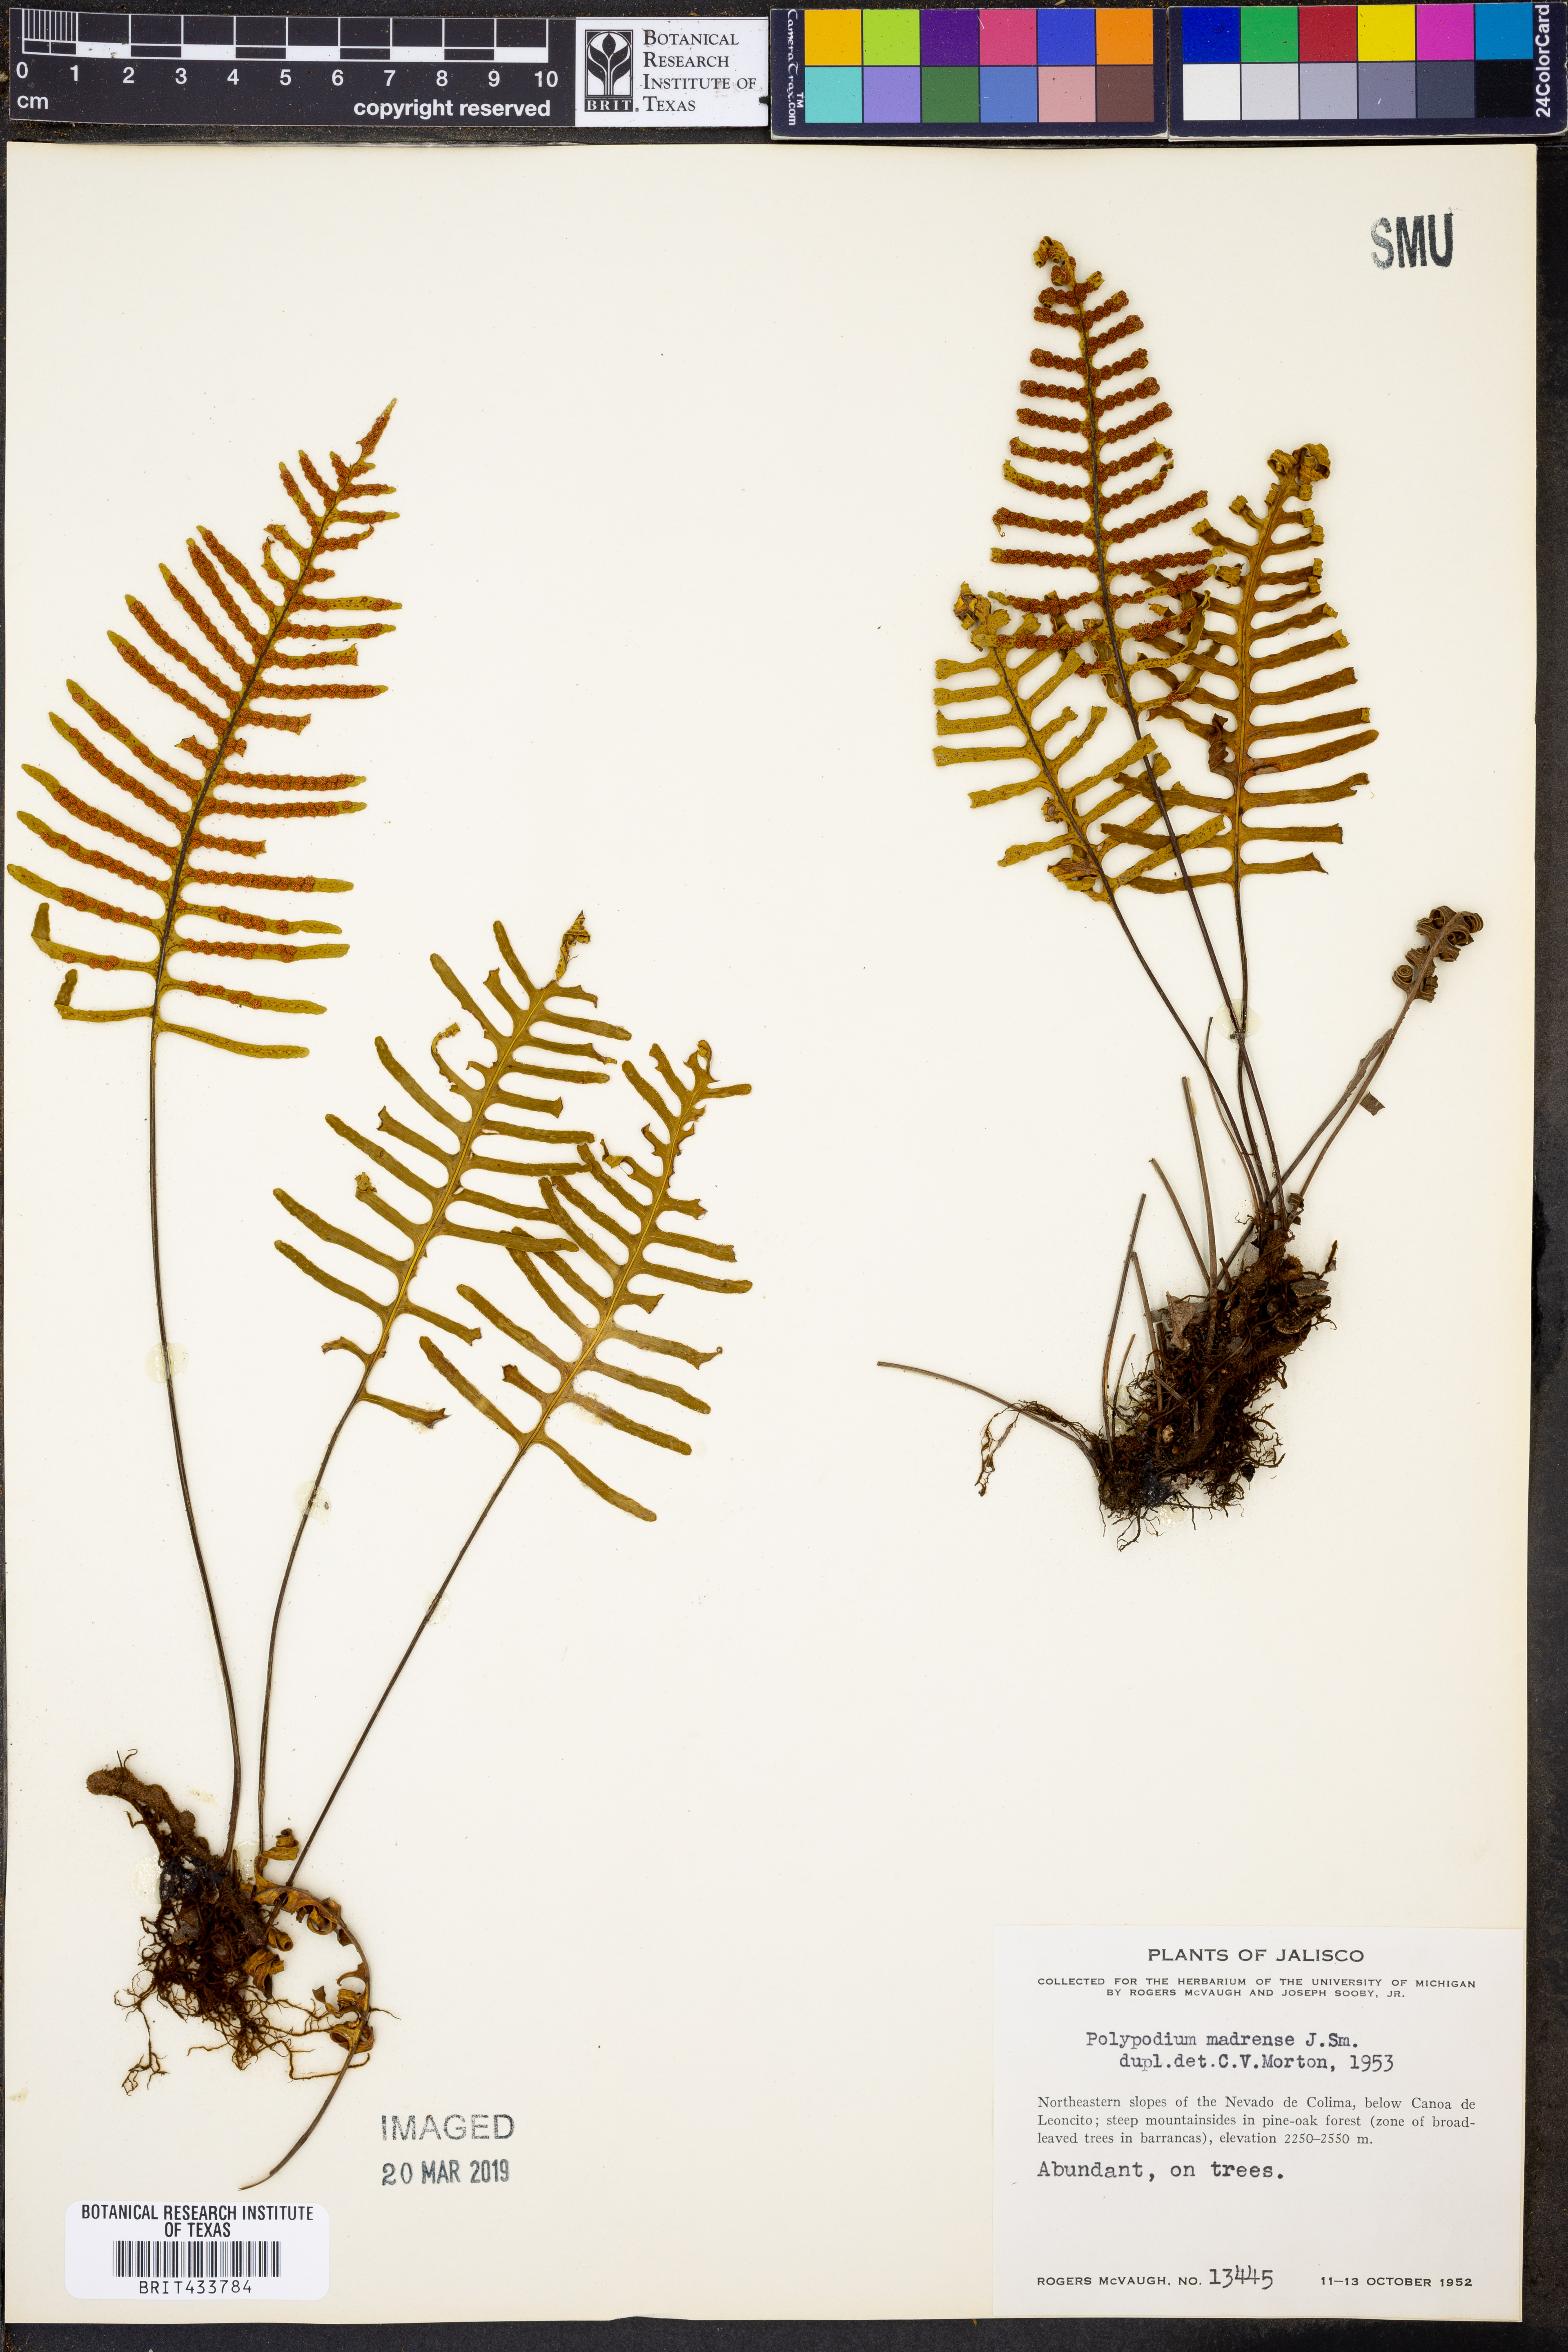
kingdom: Plantae
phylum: Tracheophyta
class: Polypodiopsida
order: Polypodiales
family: Polypodiaceae
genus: Pleopeltis
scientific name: Pleopeltis madrensis
